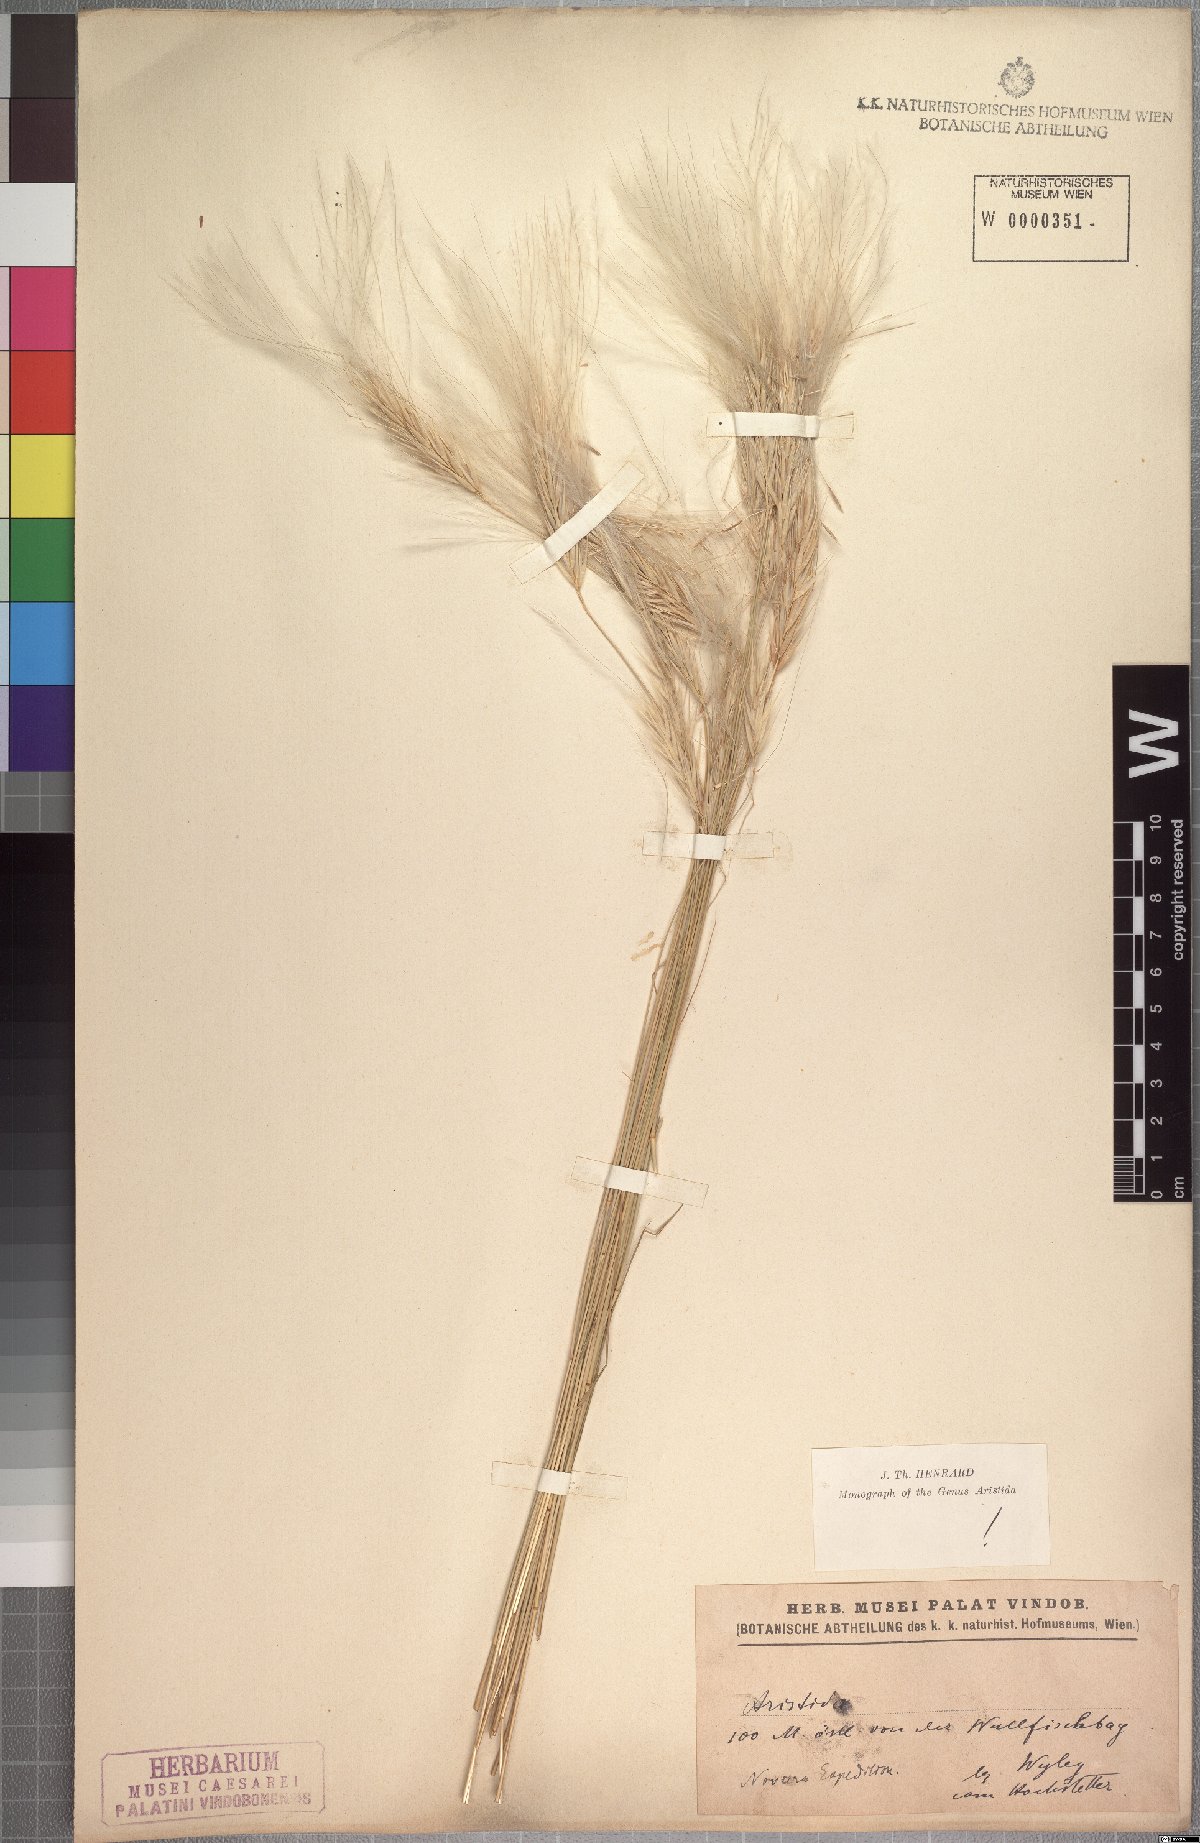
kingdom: Plantae
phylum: Tracheophyta
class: Liliopsida
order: Poales
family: Poaceae
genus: Stipagrostis
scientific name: Stipagrostis hochstetteriana
